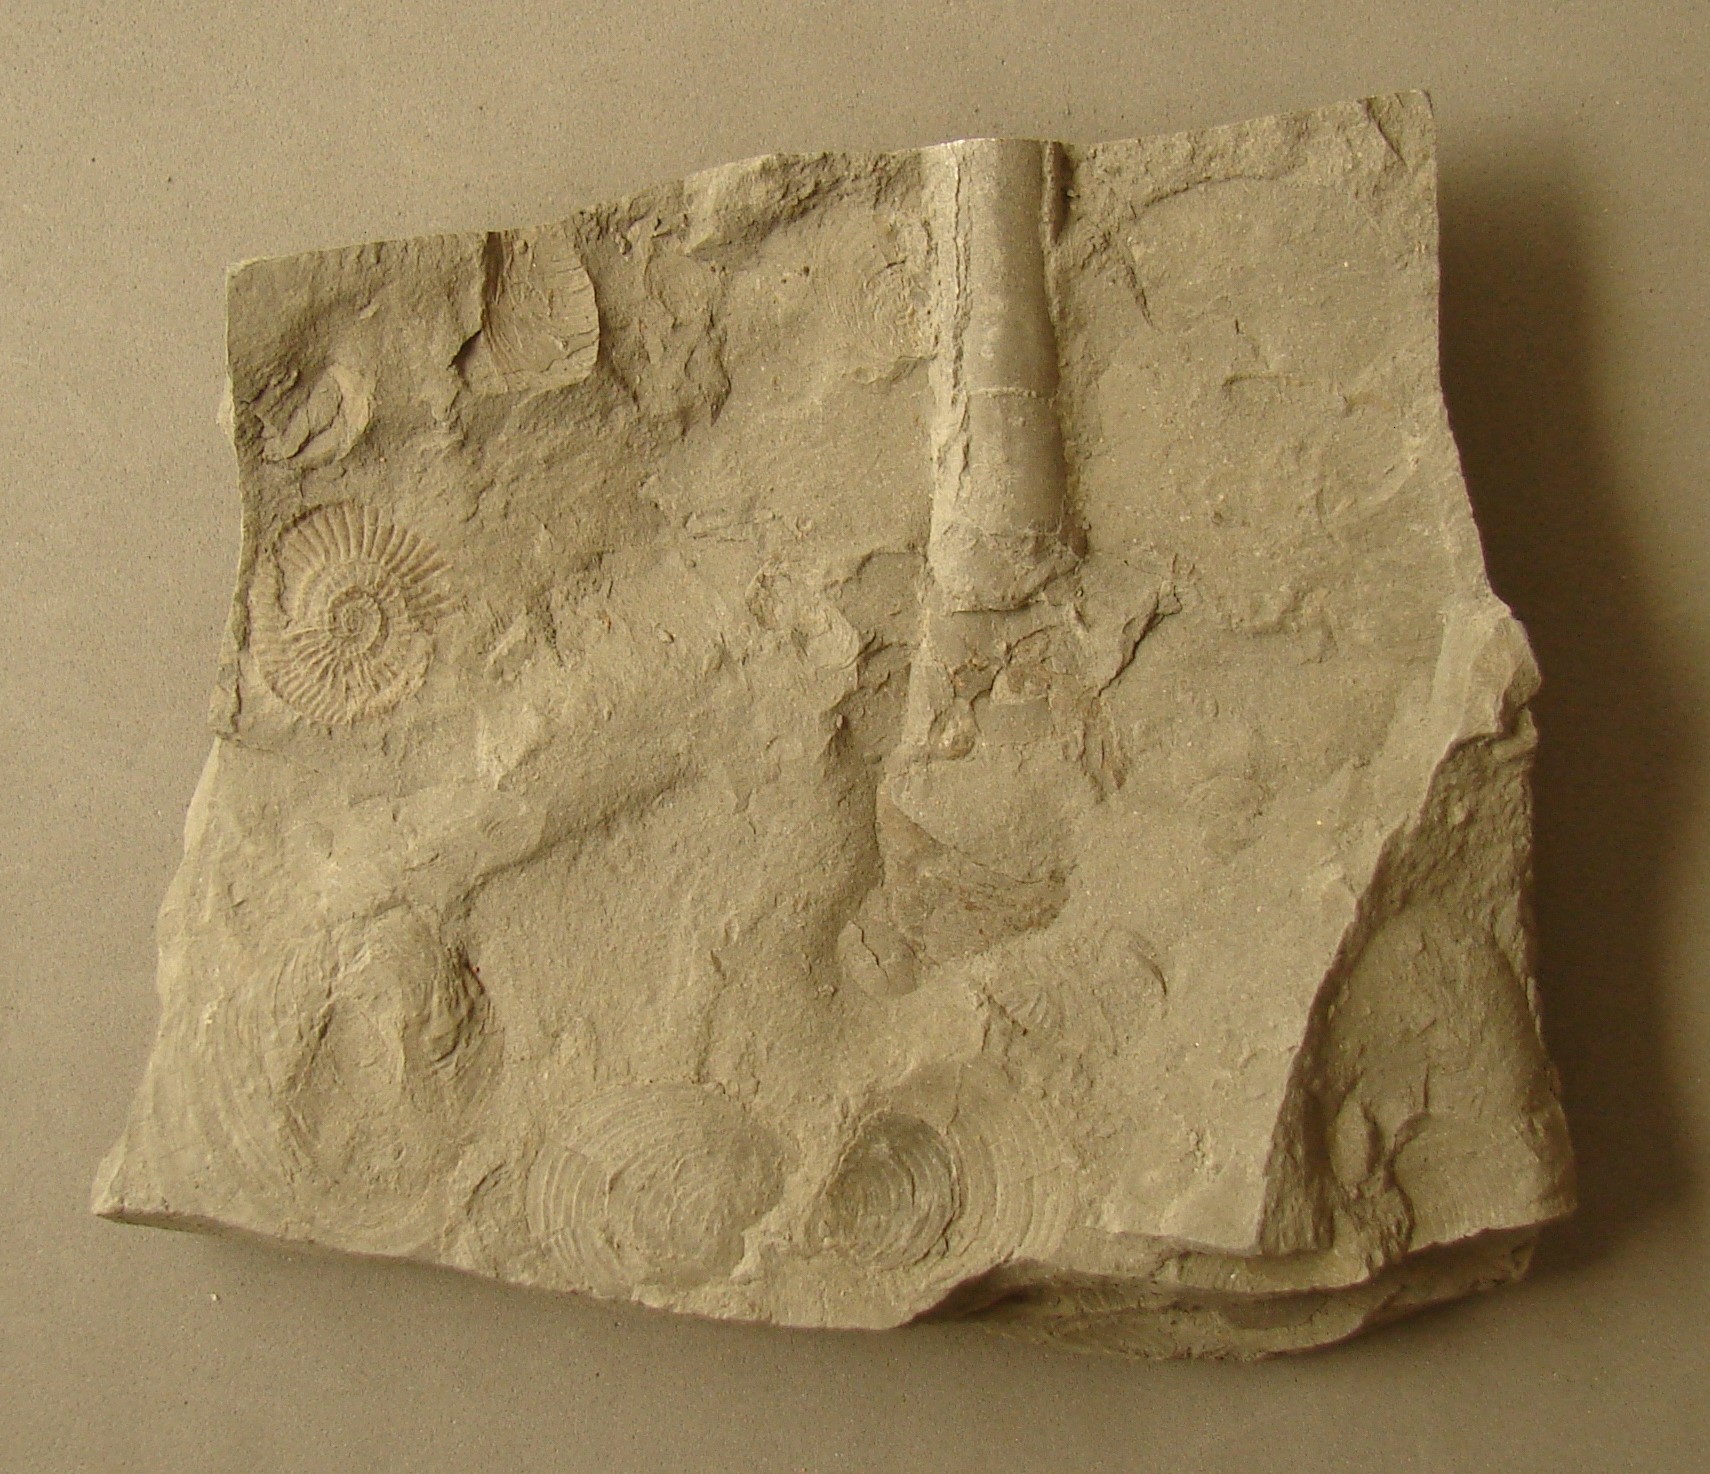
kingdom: Animalia
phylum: Mollusca
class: Cephalopoda
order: Belemnitida
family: Megateuthididae
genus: Cuspiteuthis
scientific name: Cuspiteuthis tubularis
